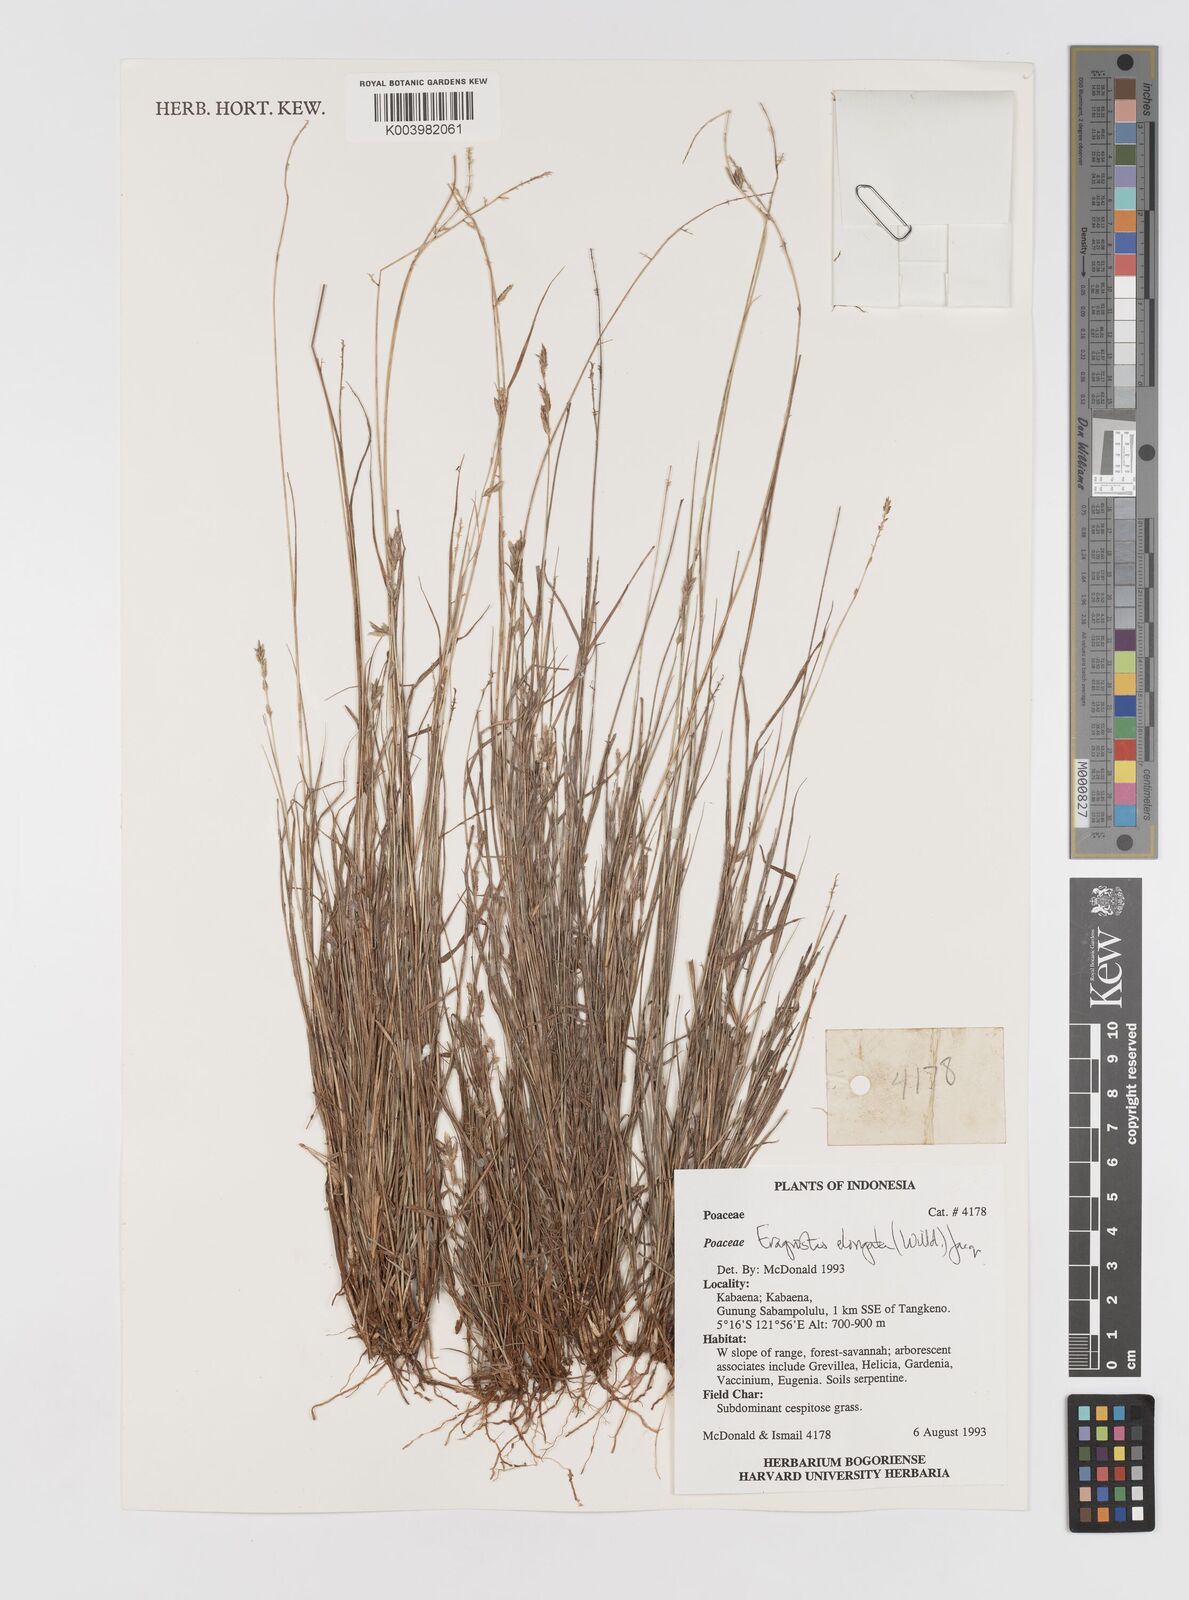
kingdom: Plantae
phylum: Tracheophyta
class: Liliopsida
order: Poales
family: Poaceae
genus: Eragrostis
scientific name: Eragrostis elongata
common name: Long lovegrass
